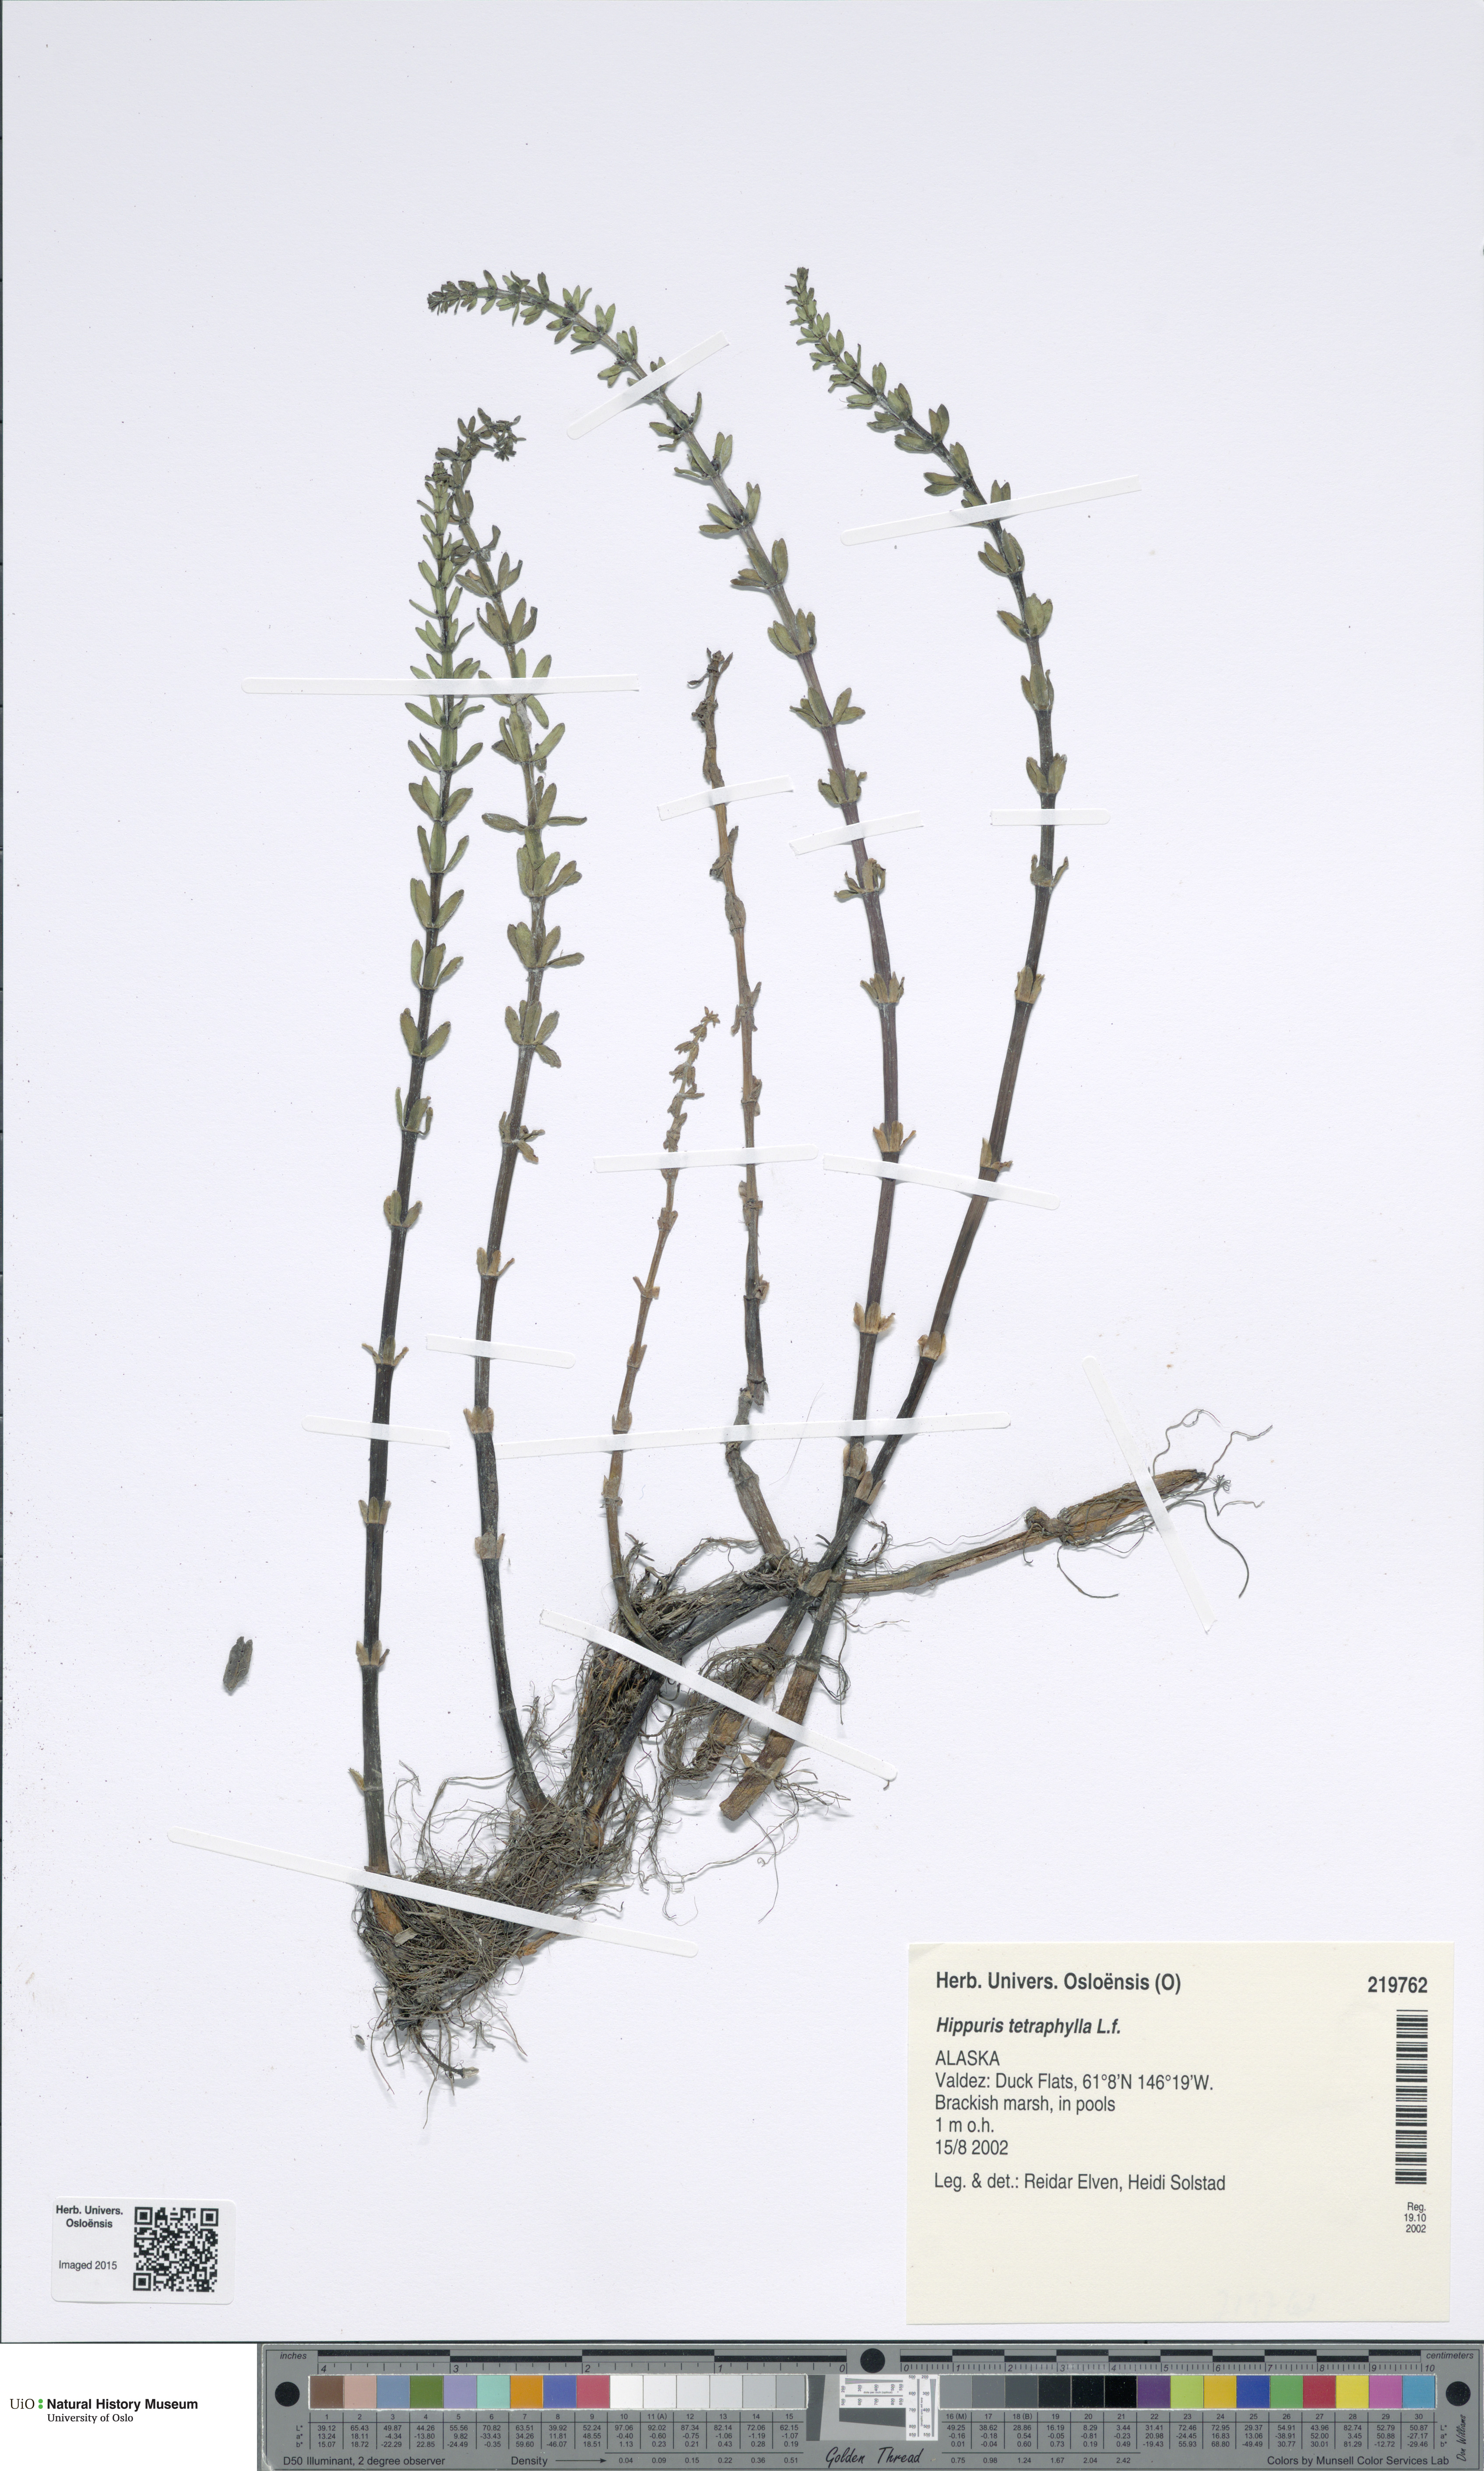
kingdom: Plantae
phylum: Tracheophyta
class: Magnoliopsida
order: Lamiales
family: Plantaginaceae
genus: Hippuris
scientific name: Hippuris tetraphylla
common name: Four-leaved mare's-tail
